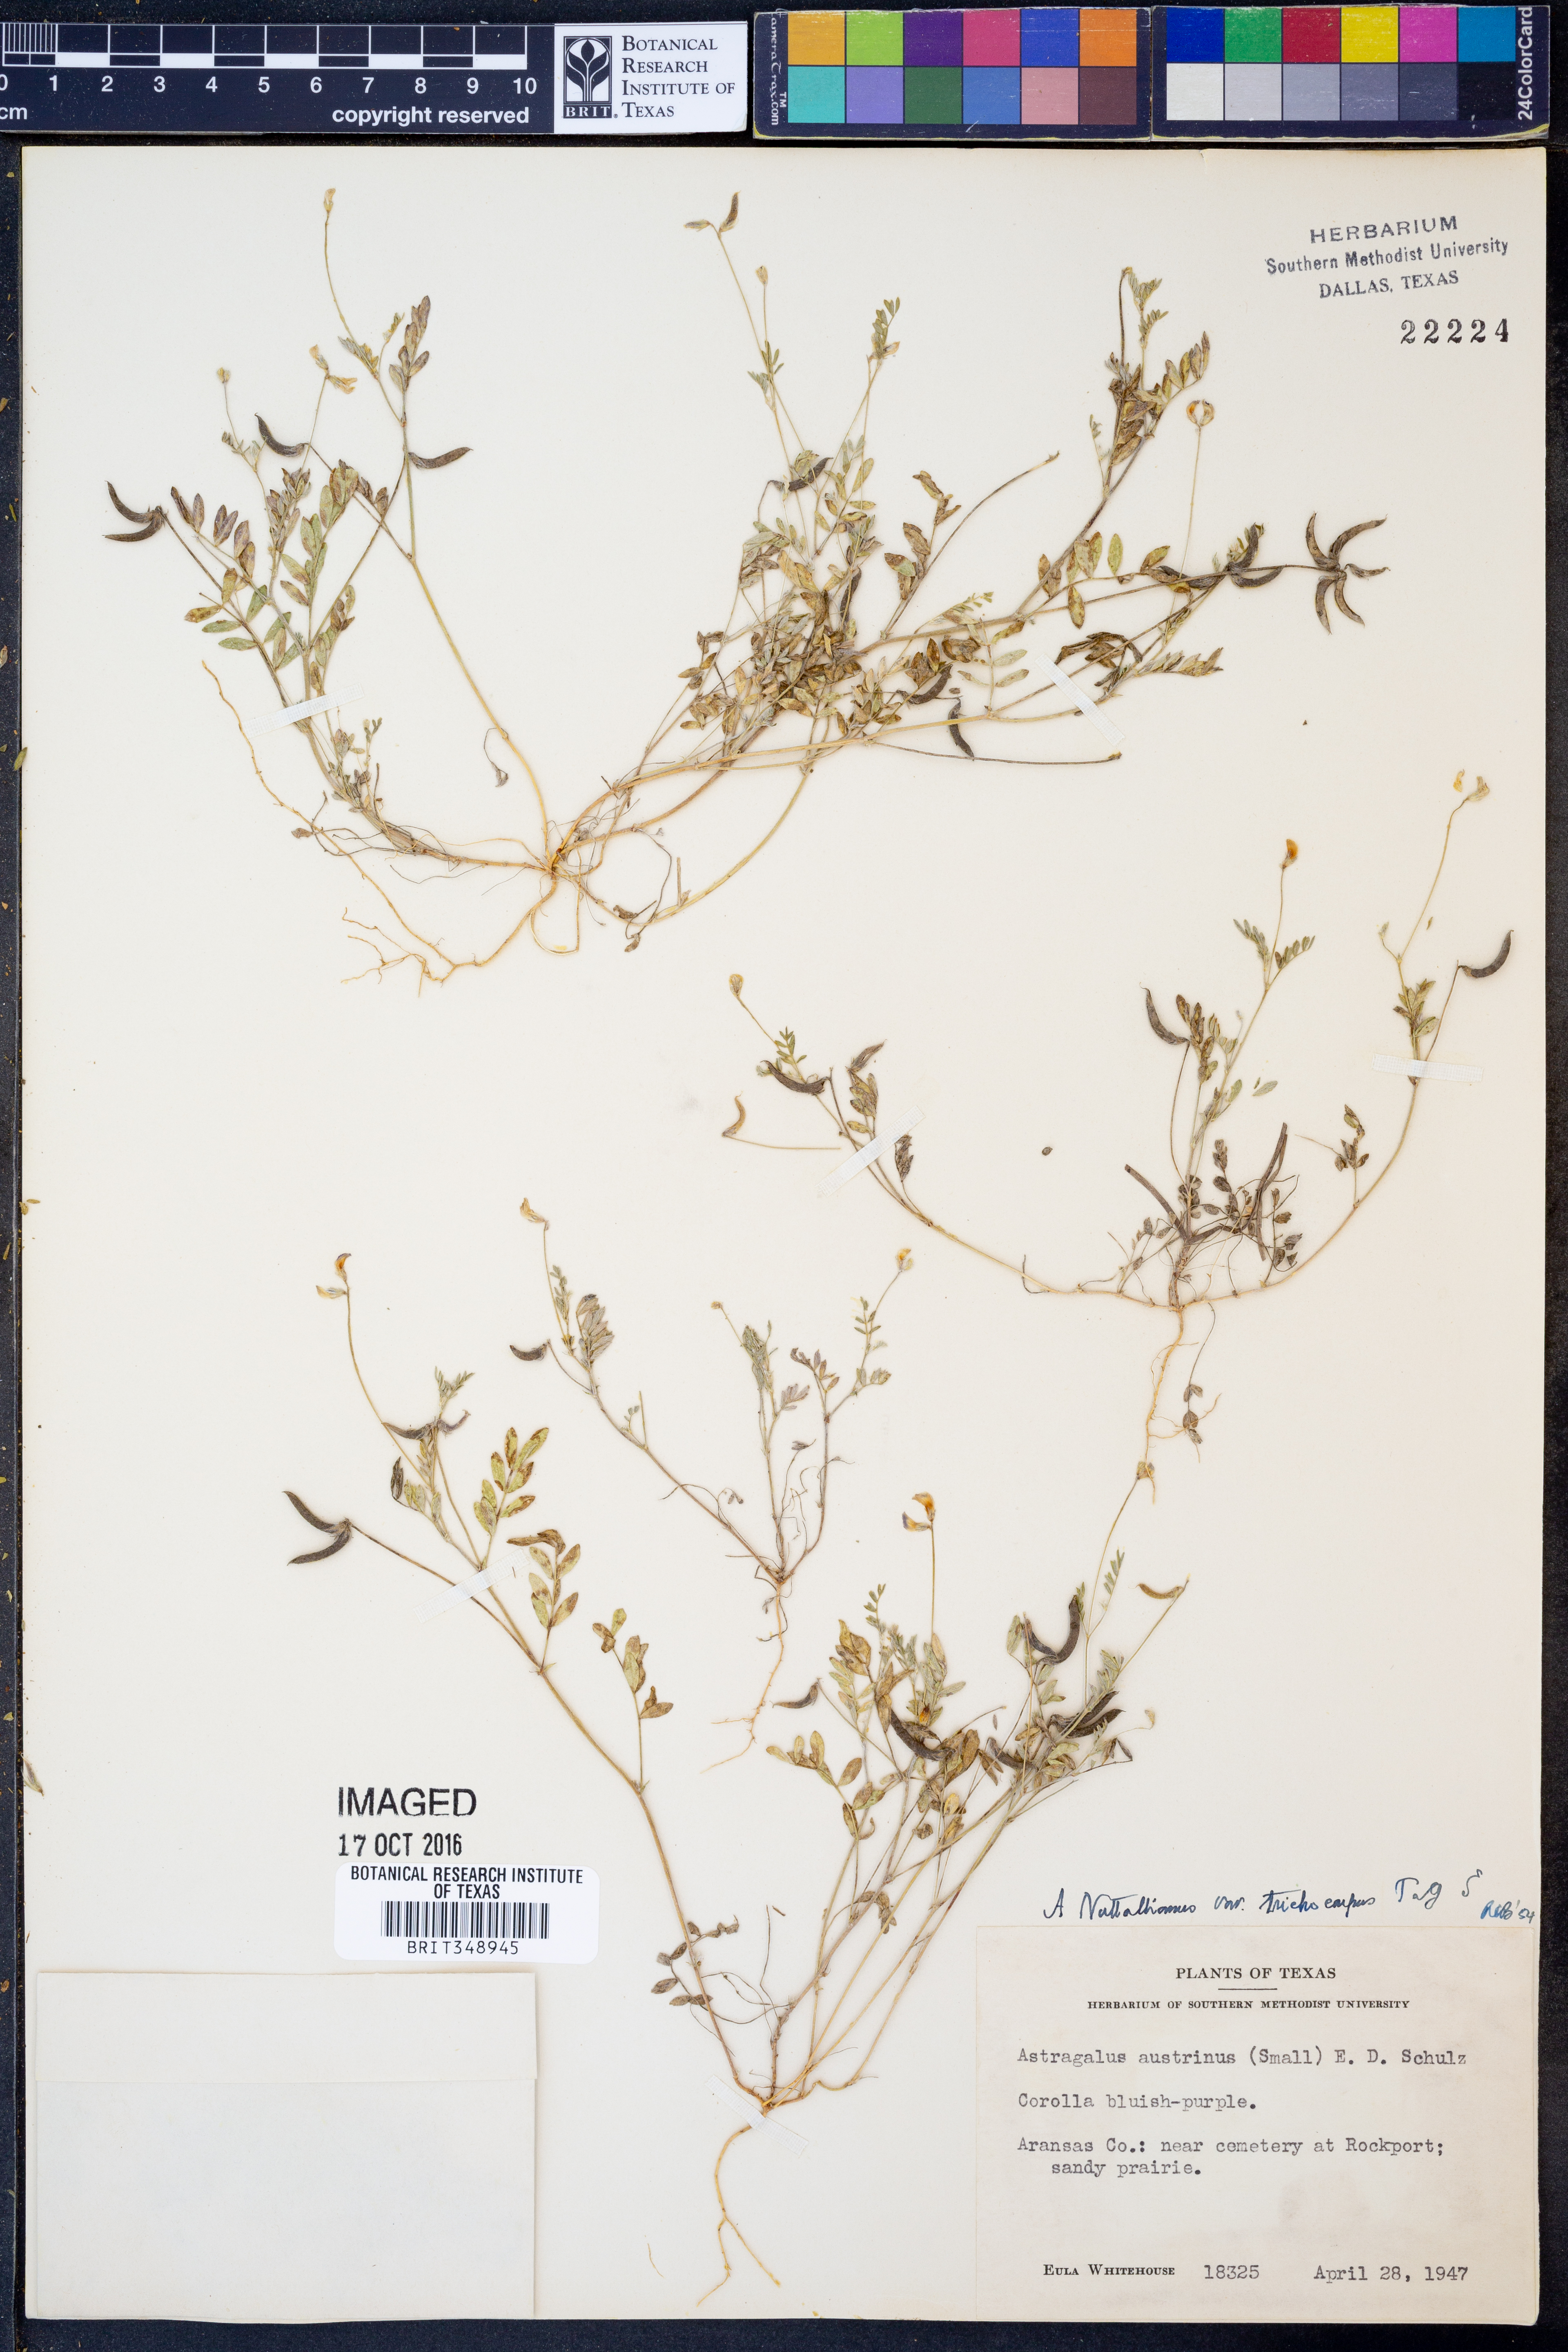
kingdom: Plantae
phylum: Tracheophyta
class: Magnoliopsida
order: Fabales
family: Fabaceae
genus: Astragalus
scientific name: Astragalus nuttallianus
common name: Smallflowered milkvetch
